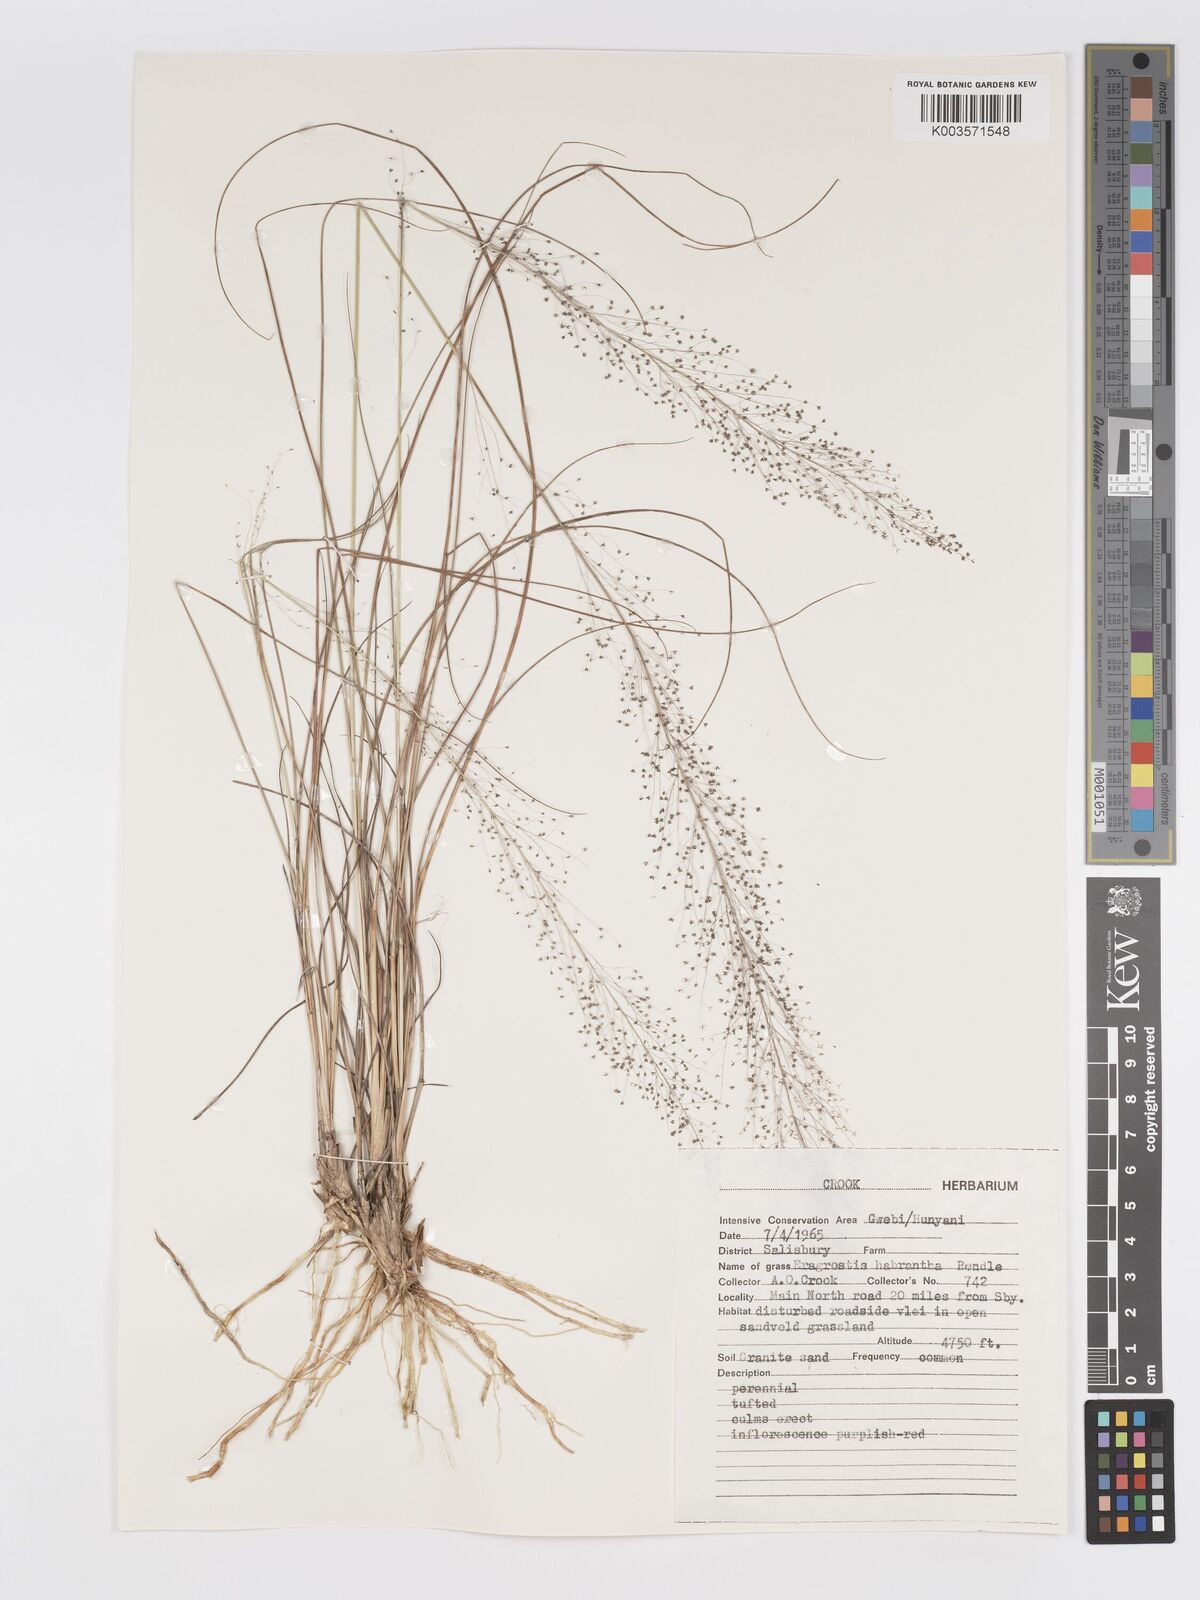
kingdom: Plantae
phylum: Tracheophyta
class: Liliopsida
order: Poales
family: Poaceae
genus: Eragrostis
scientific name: Eragrostis habrantha
